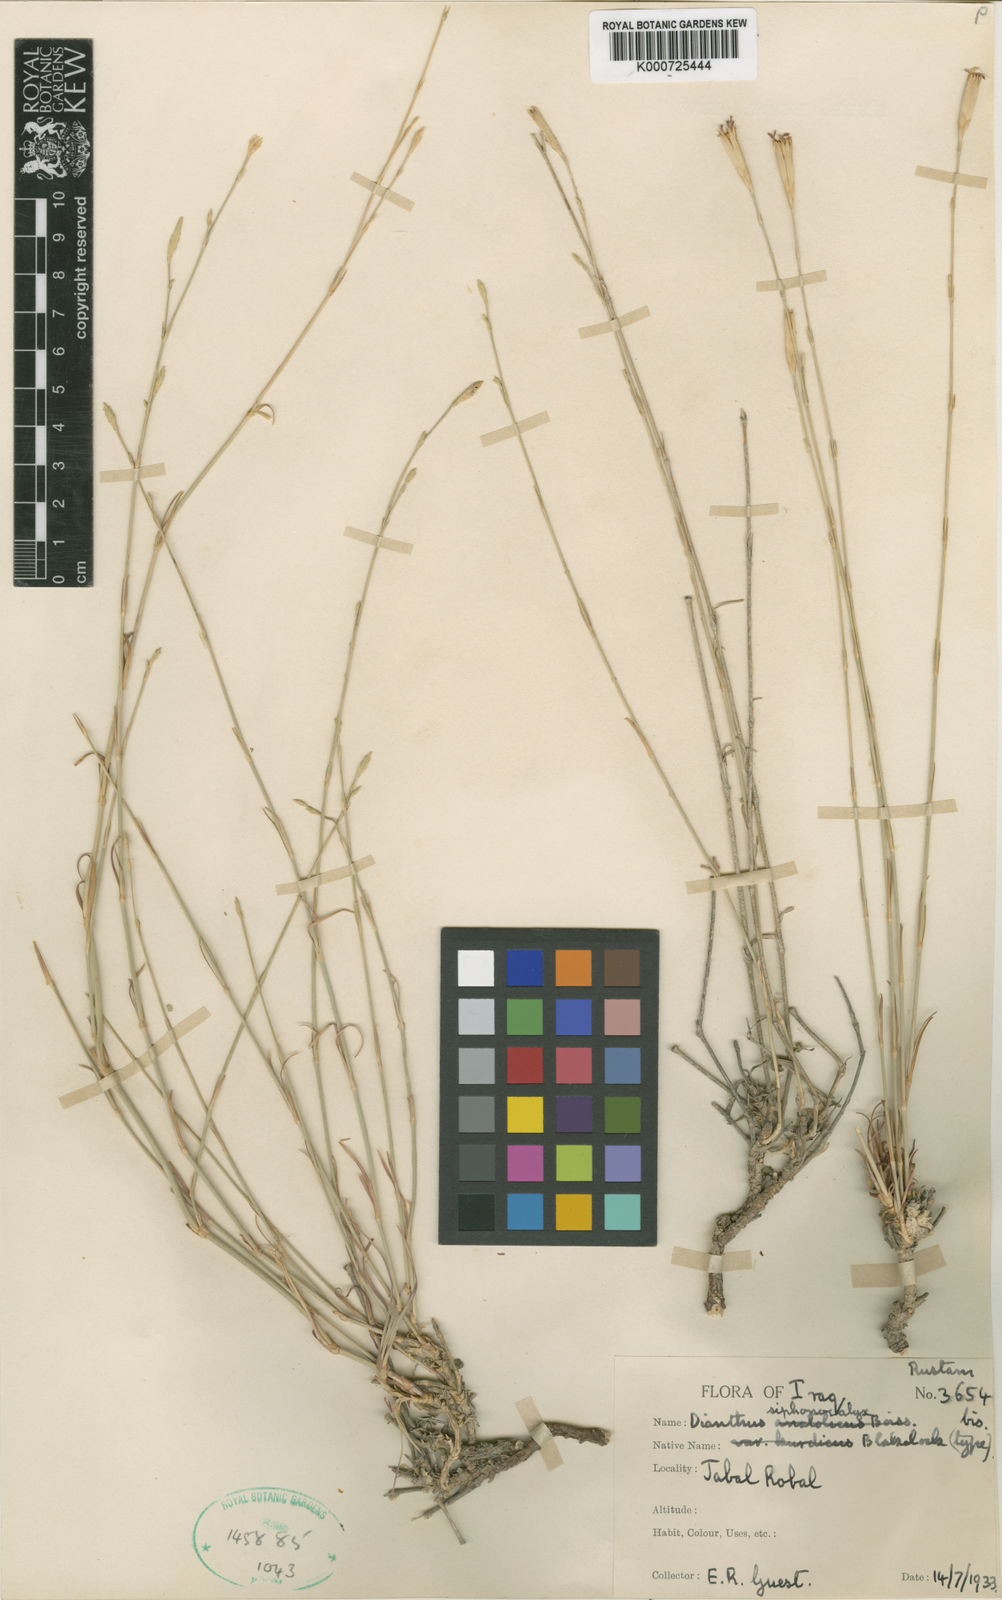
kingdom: Plantae
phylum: Tracheophyta
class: Magnoliopsida
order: Caryophyllales
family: Caryophyllaceae
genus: Dianthus
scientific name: Dianthus siphonocalyx
